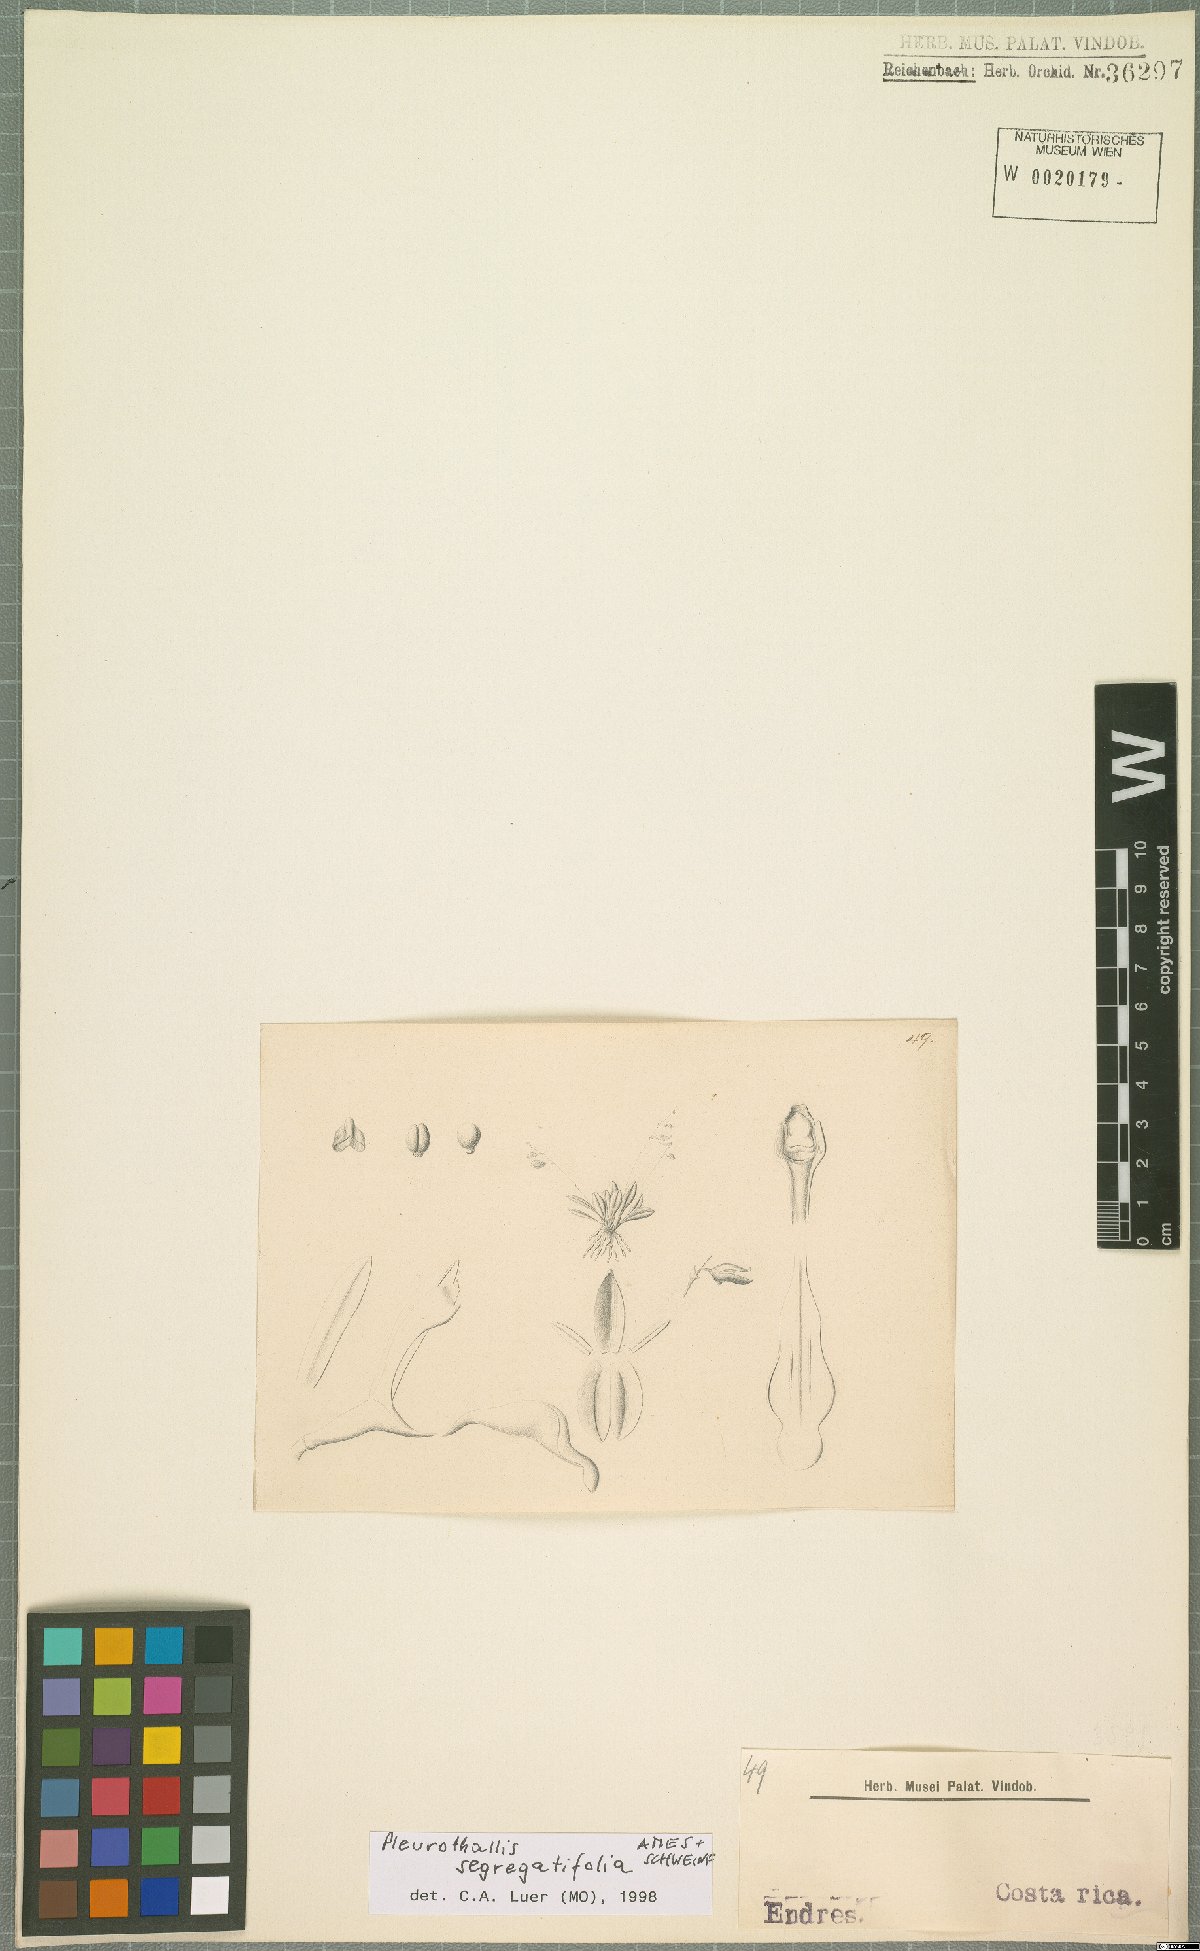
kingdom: Plantae
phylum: Tracheophyta
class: Liliopsida
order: Asparagales
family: Orchidaceae
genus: Muscarella
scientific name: Muscarella segregatifolia
